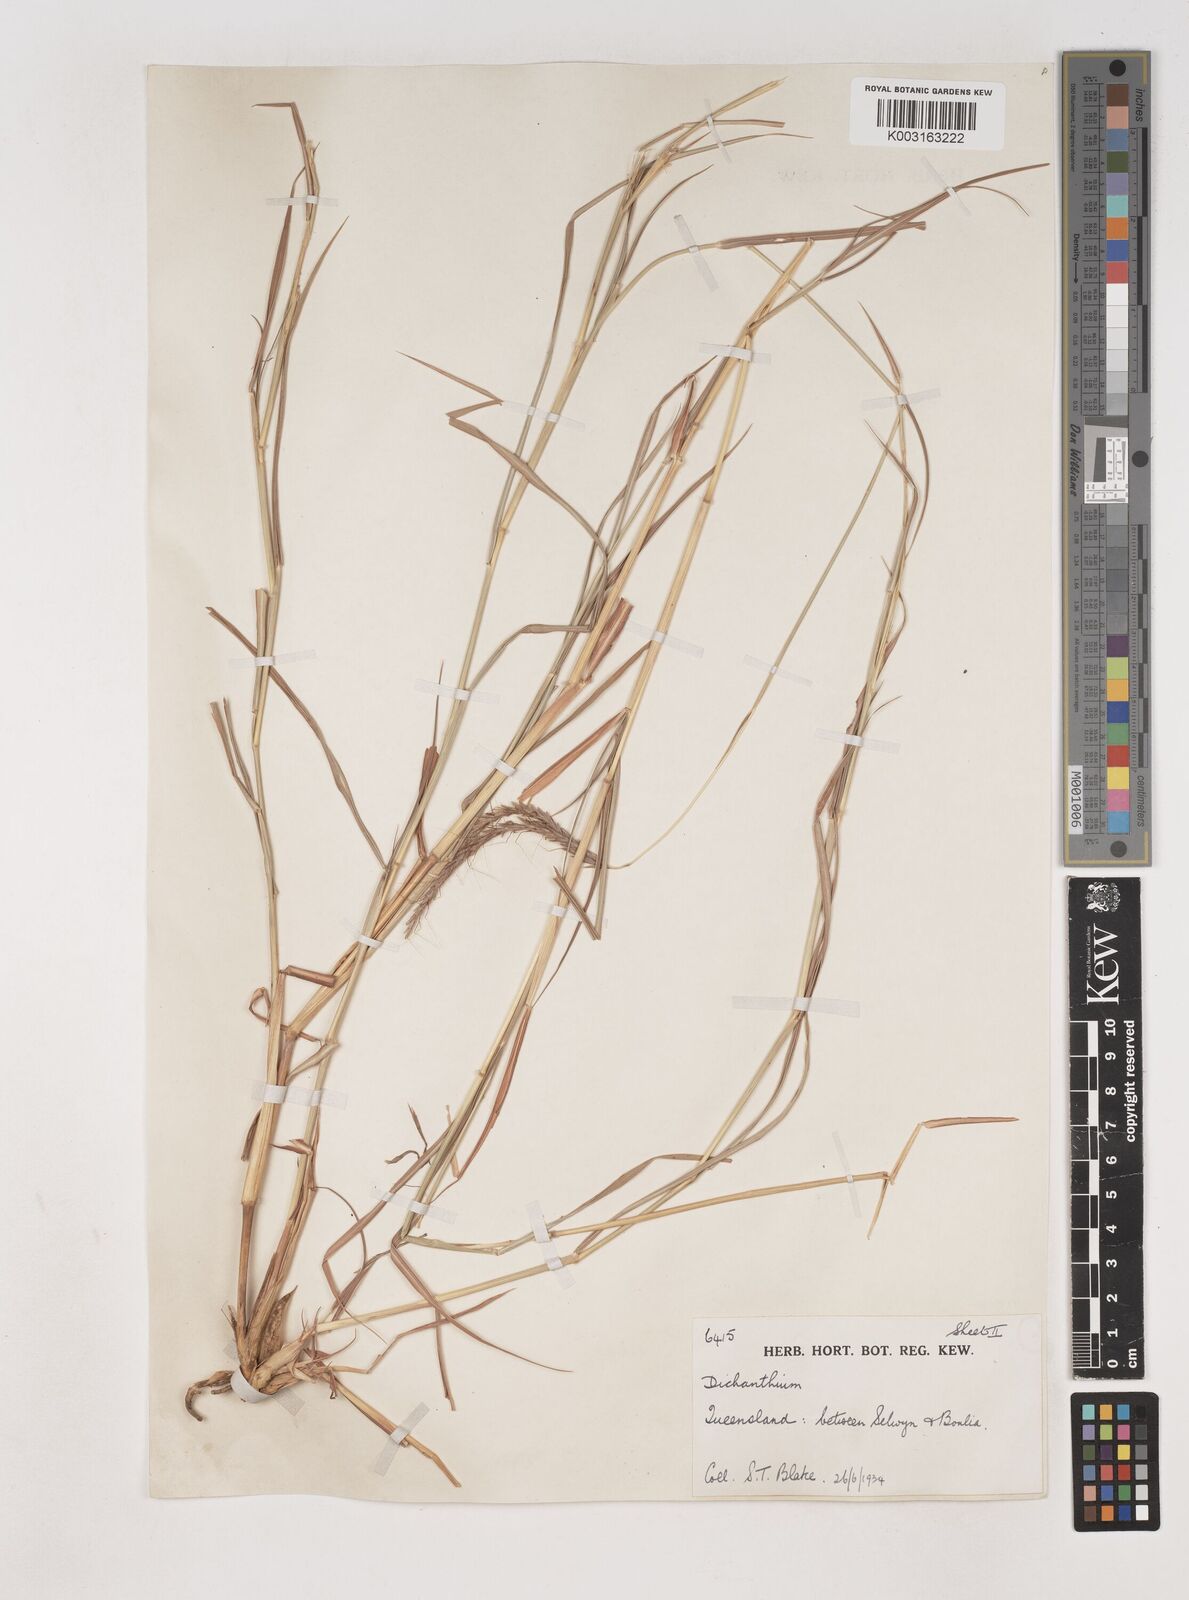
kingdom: Plantae
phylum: Tracheophyta
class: Liliopsida
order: Poales
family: Poaceae
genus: Dichanthium
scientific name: Dichanthium fecundum
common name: Bundle-bundle
